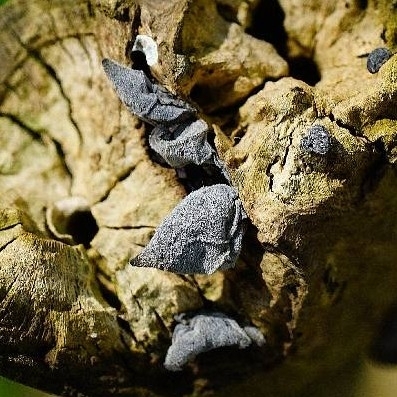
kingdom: Fungi
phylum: Basidiomycota
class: Agaricomycetes
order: Auriculariales
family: Auriculariaceae
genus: Auricularia
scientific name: Auricularia auricula-judae
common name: almindelig judasøre
